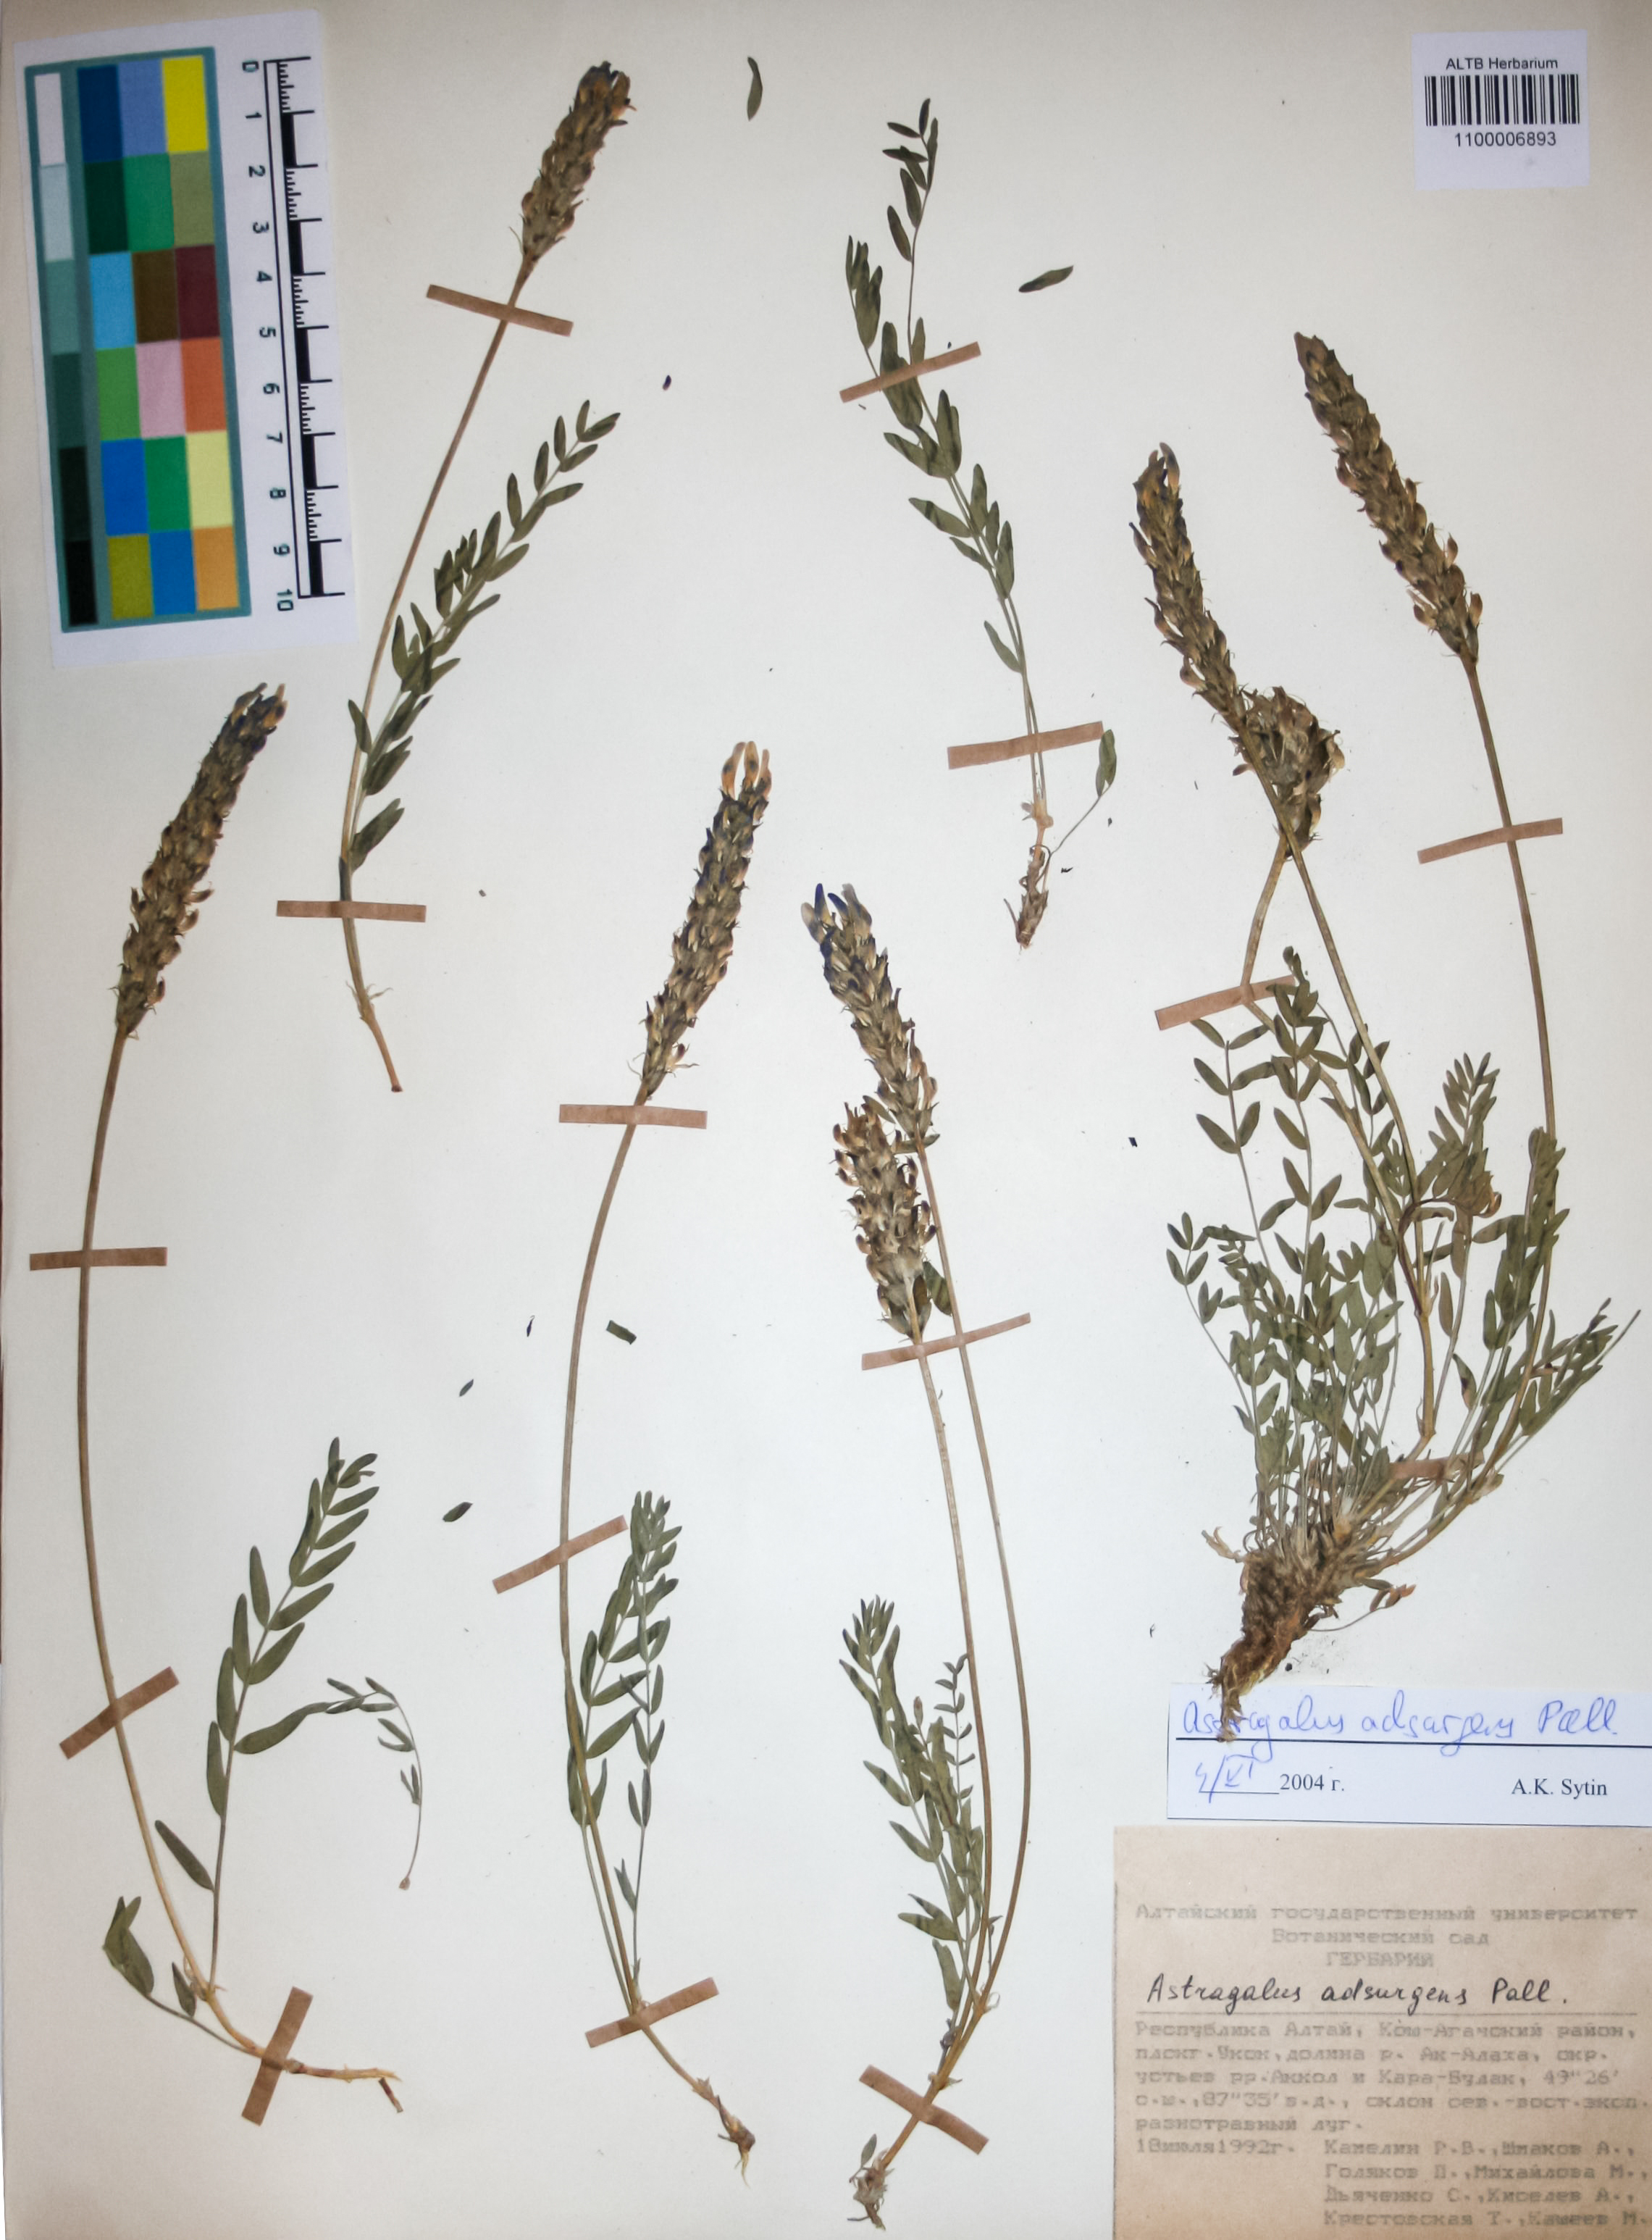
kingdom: Plantae
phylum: Tracheophyta
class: Magnoliopsida
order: Fabales
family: Fabaceae
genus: Astragalus
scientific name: Astragalus laxmannii
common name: Laxmann's milk-vetch
